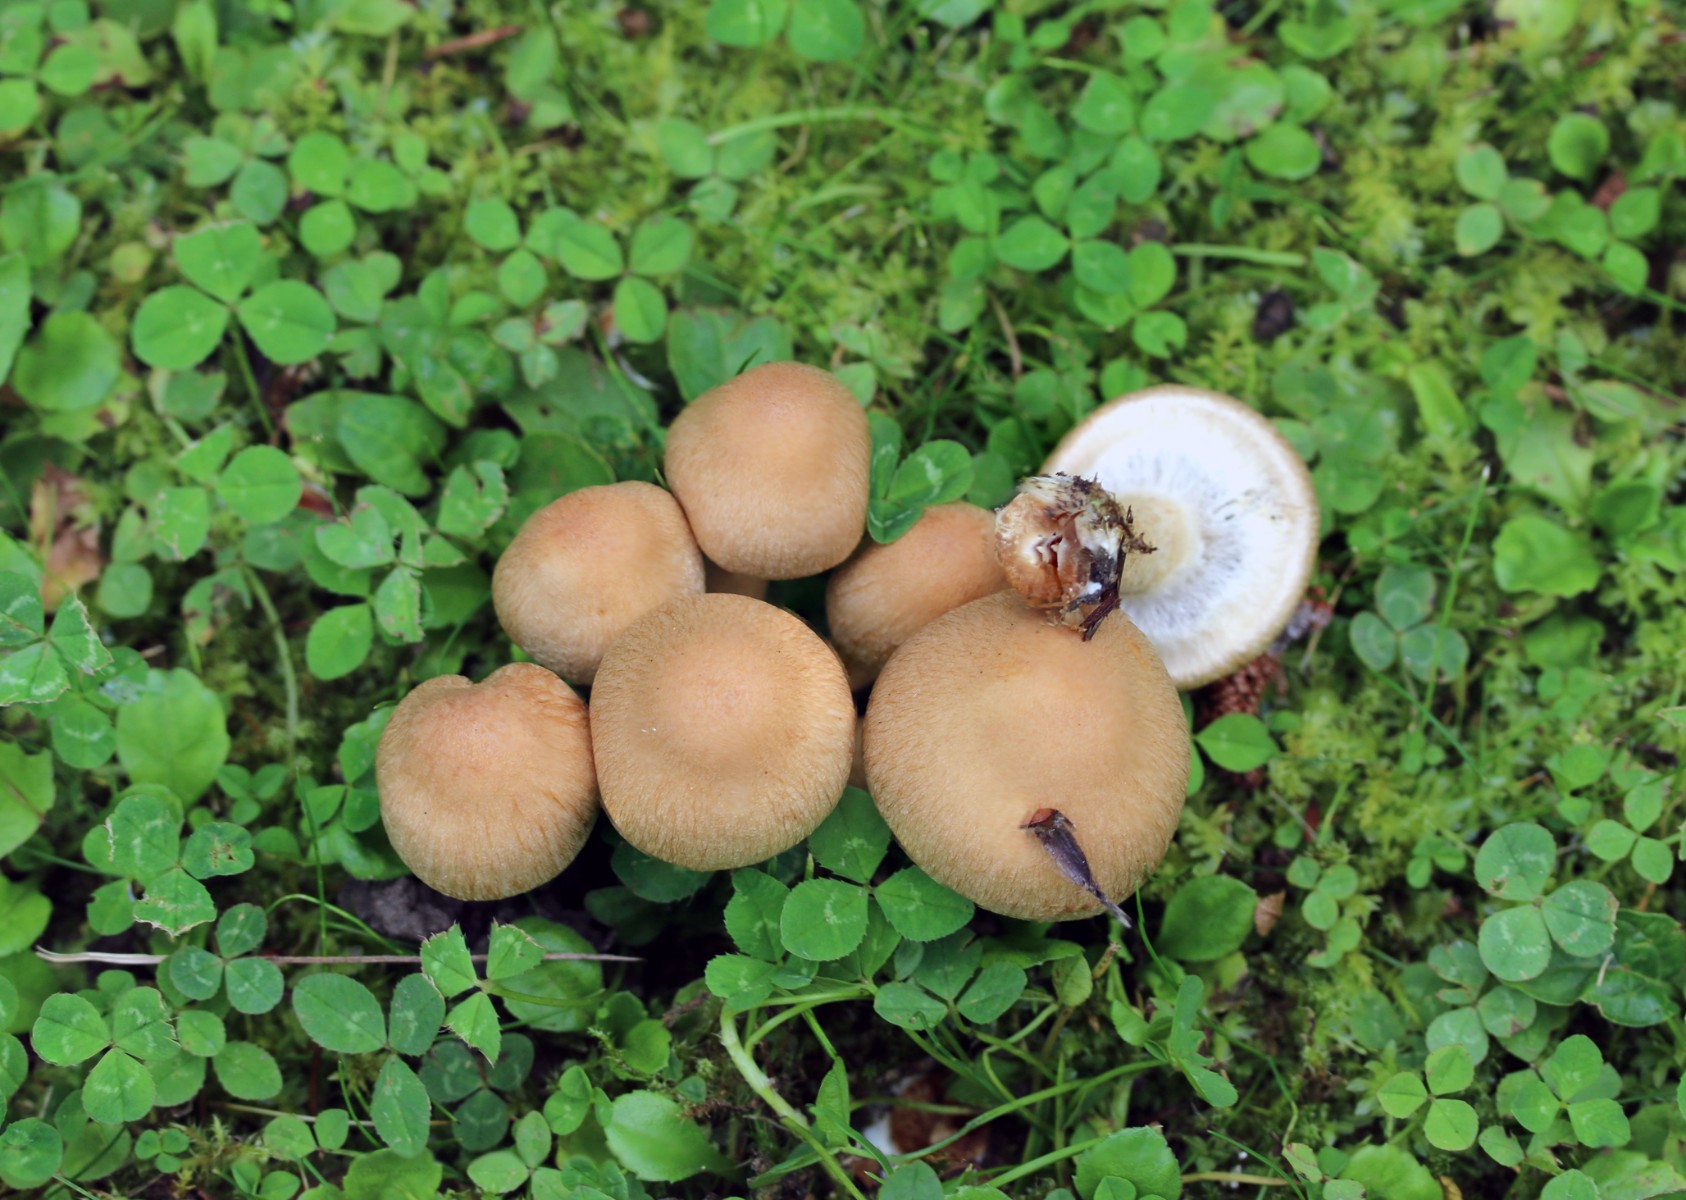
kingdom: Fungi
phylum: Basidiomycota
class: Agaricomycetes
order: Agaricales
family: Psathyrellaceae
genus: Lacrymaria
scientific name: Lacrymaria lacrymabunda
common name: grædende mørkhat
